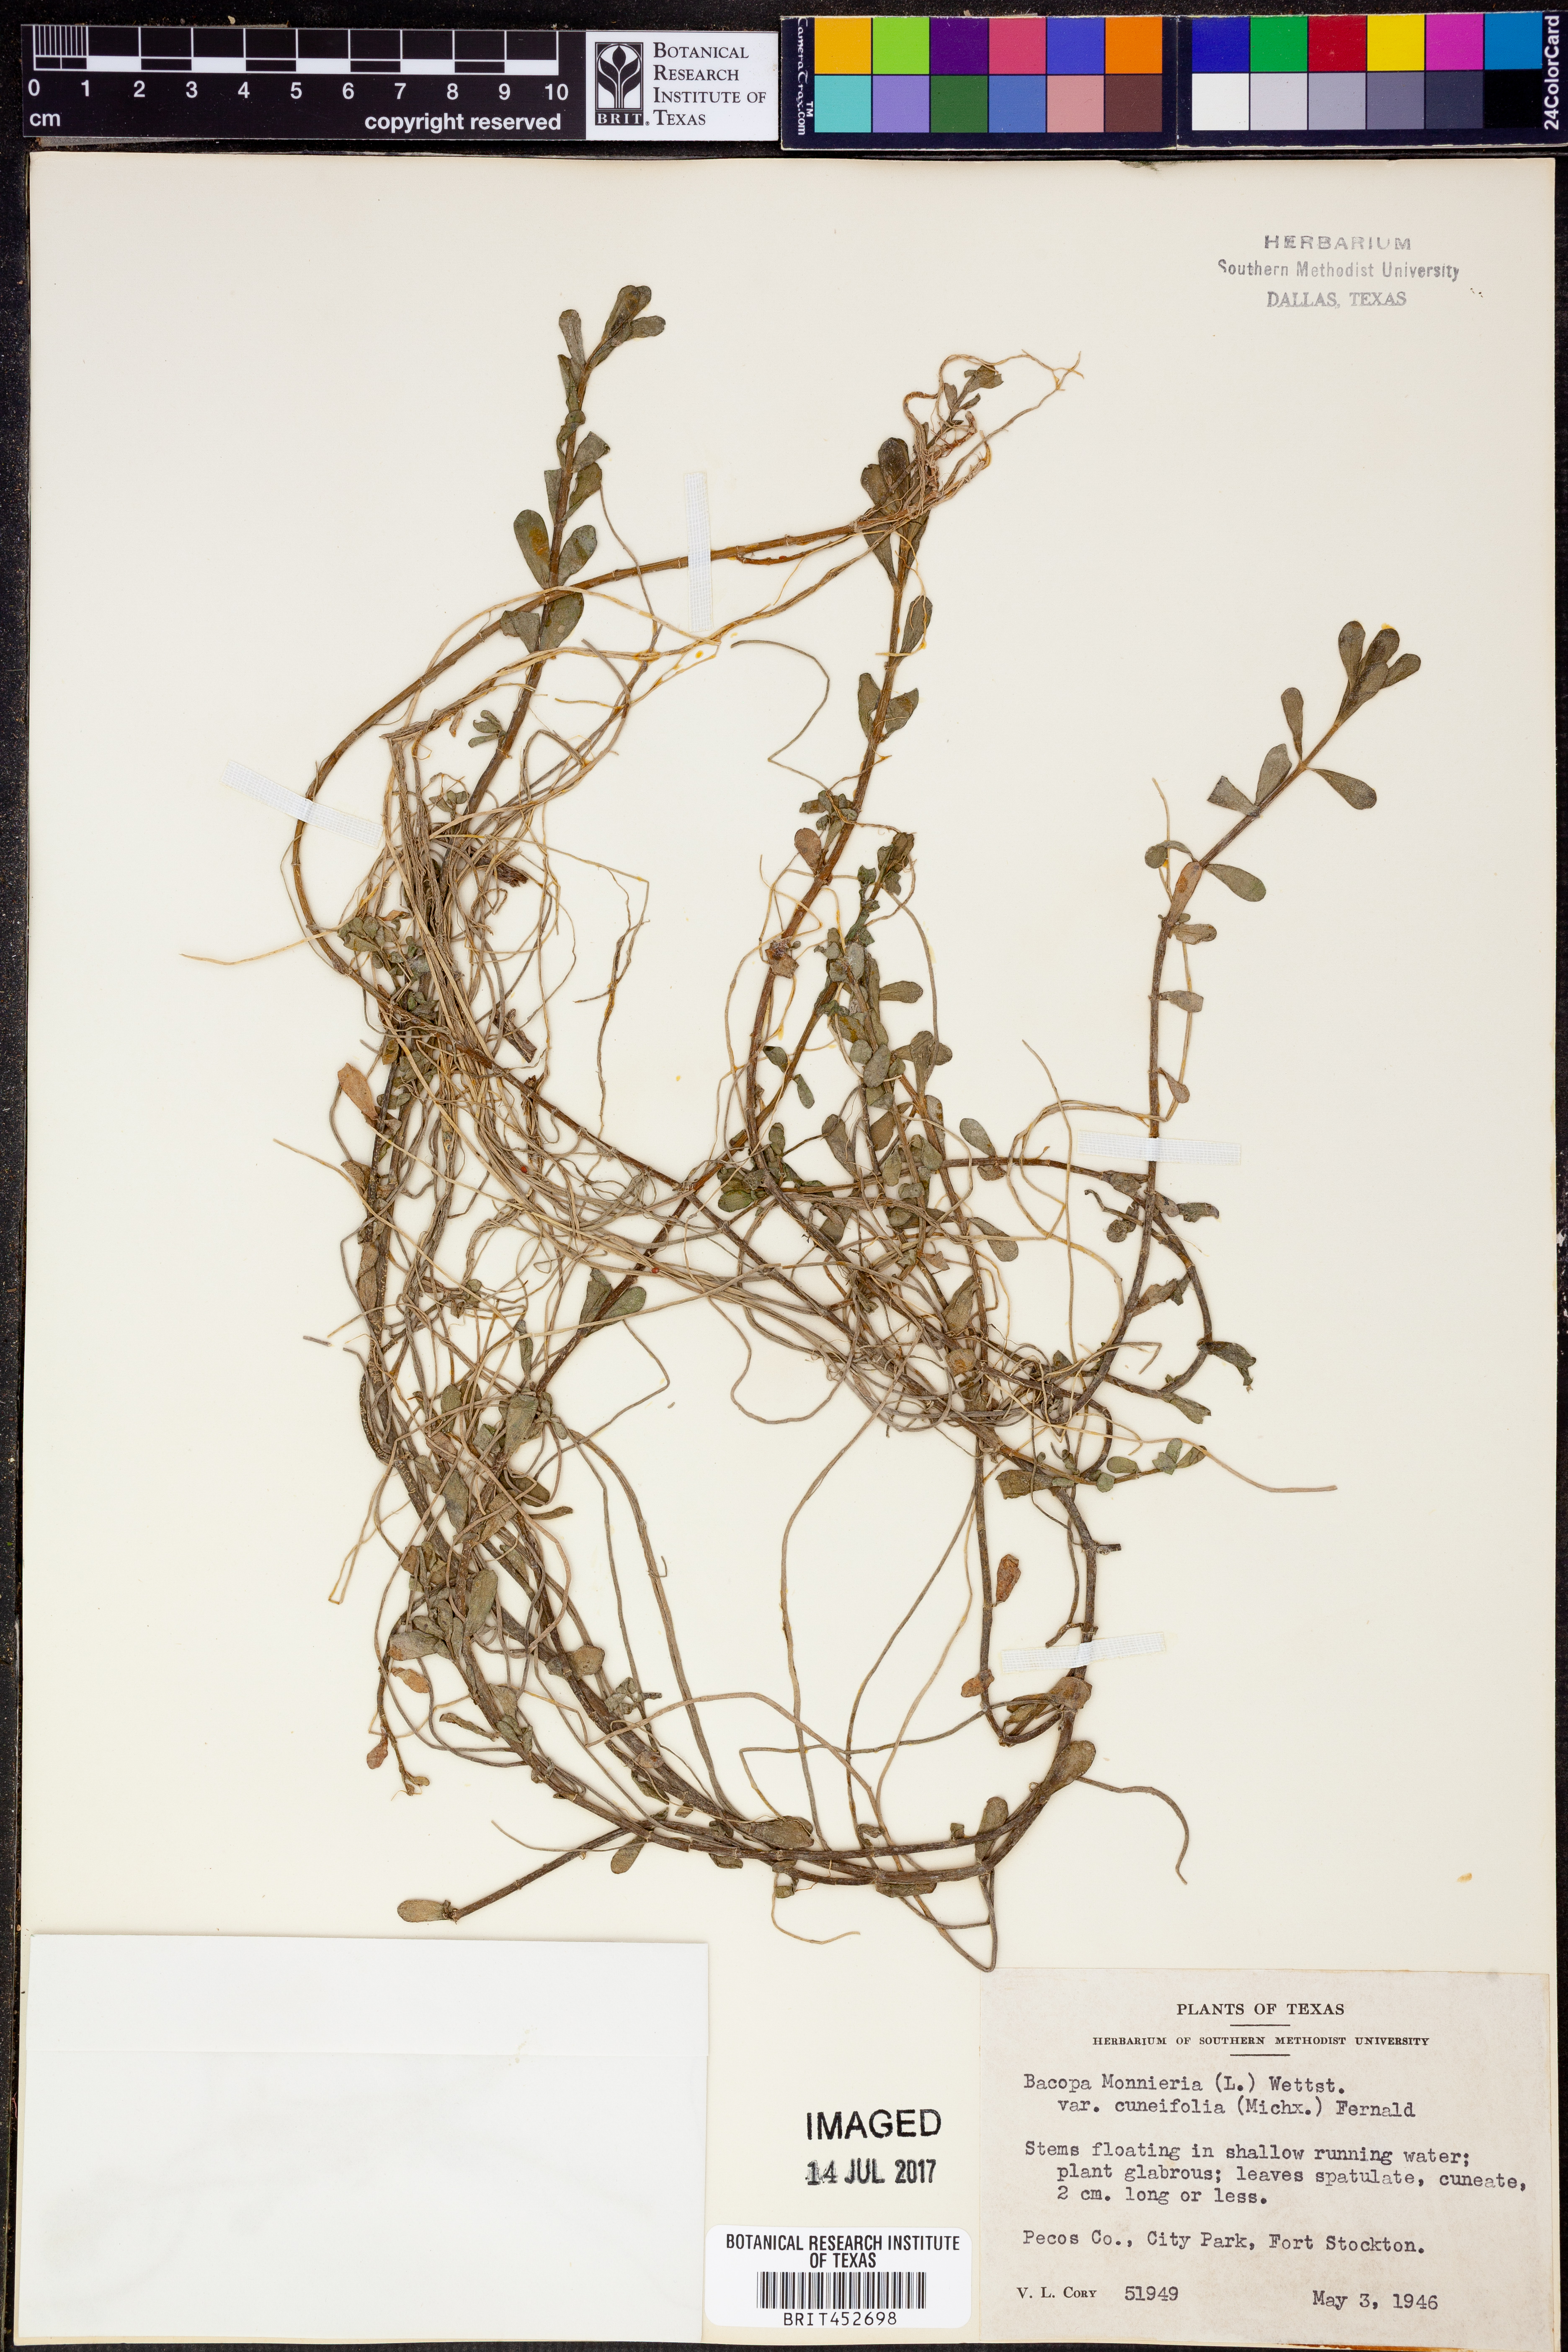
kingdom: Plantae
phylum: Tracheophyta
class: Magnoliopsida
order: Lamiales
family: Plantaginaceae
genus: Bacopa
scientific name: Bacopa monnieri
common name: Indian-pennywort
